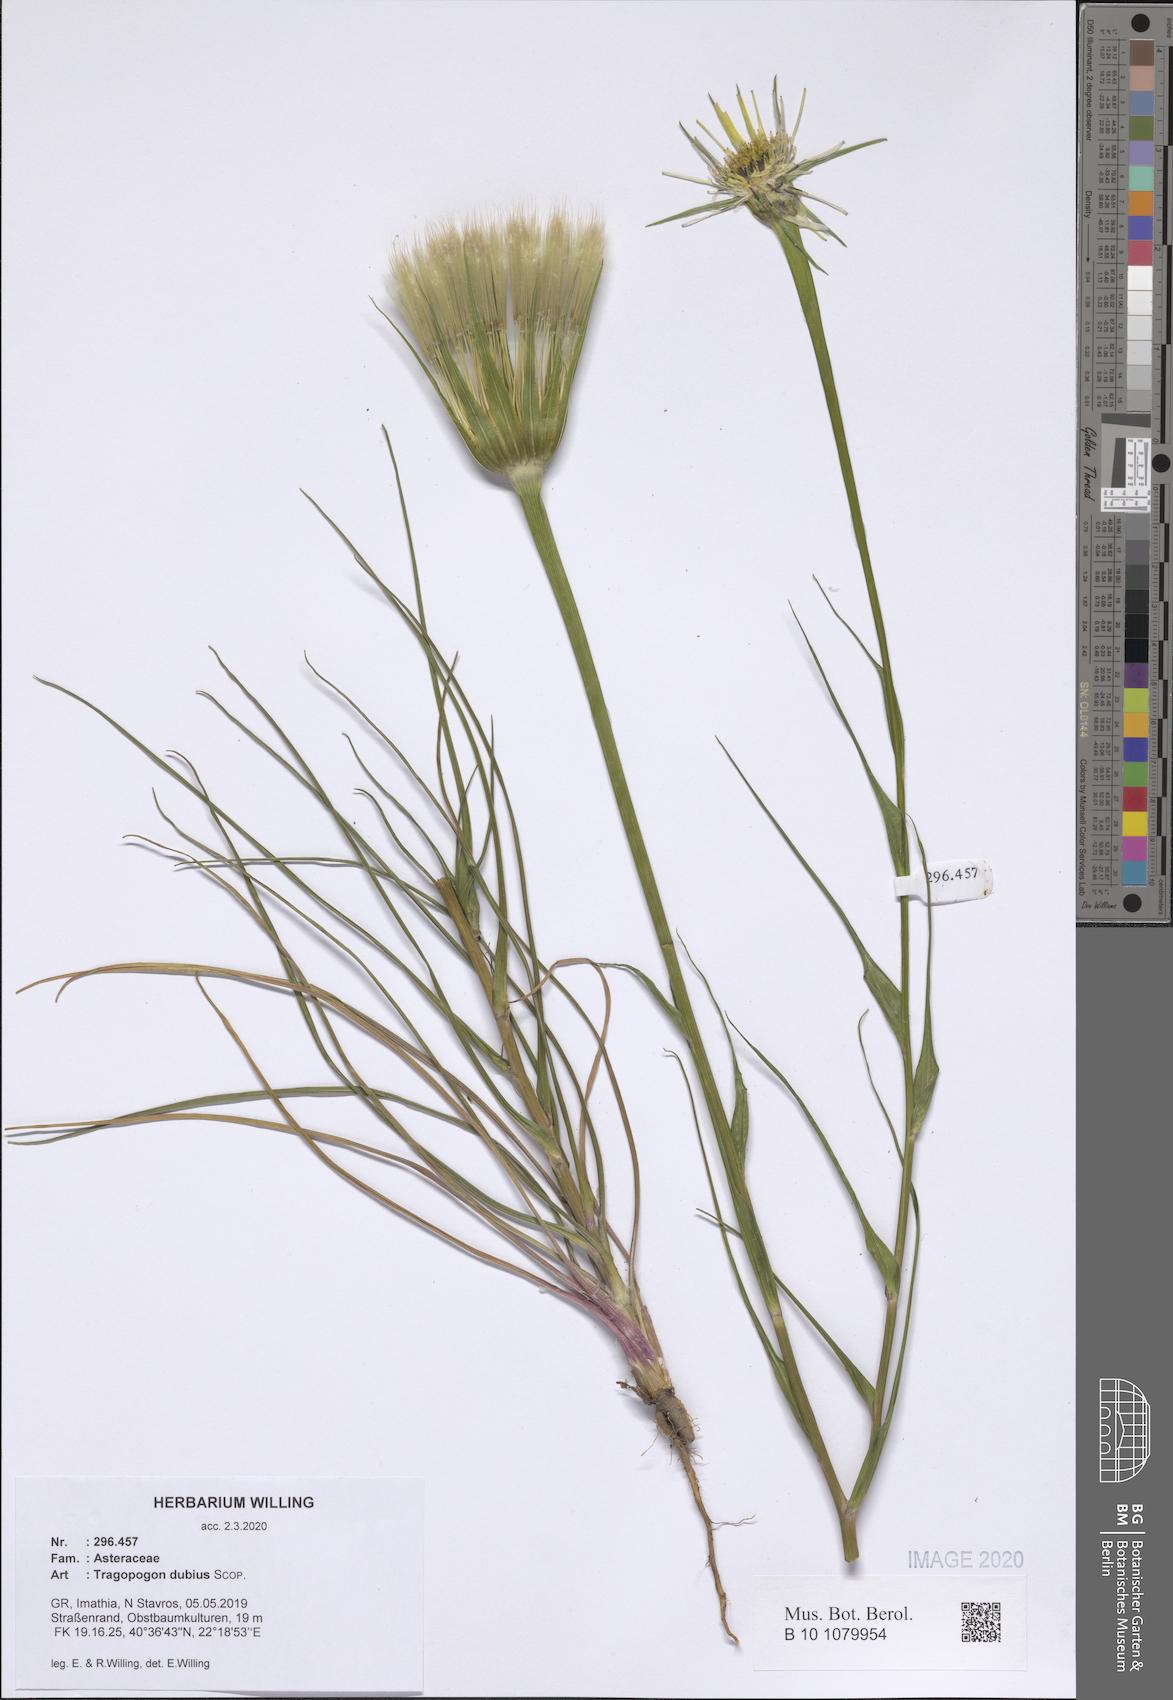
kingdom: Plantae
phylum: Tracheophyta
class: Magnoliopsida
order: Asterales
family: Asteraceae
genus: Tragopogon
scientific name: Tragopogon dubius
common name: Yellow salsify
